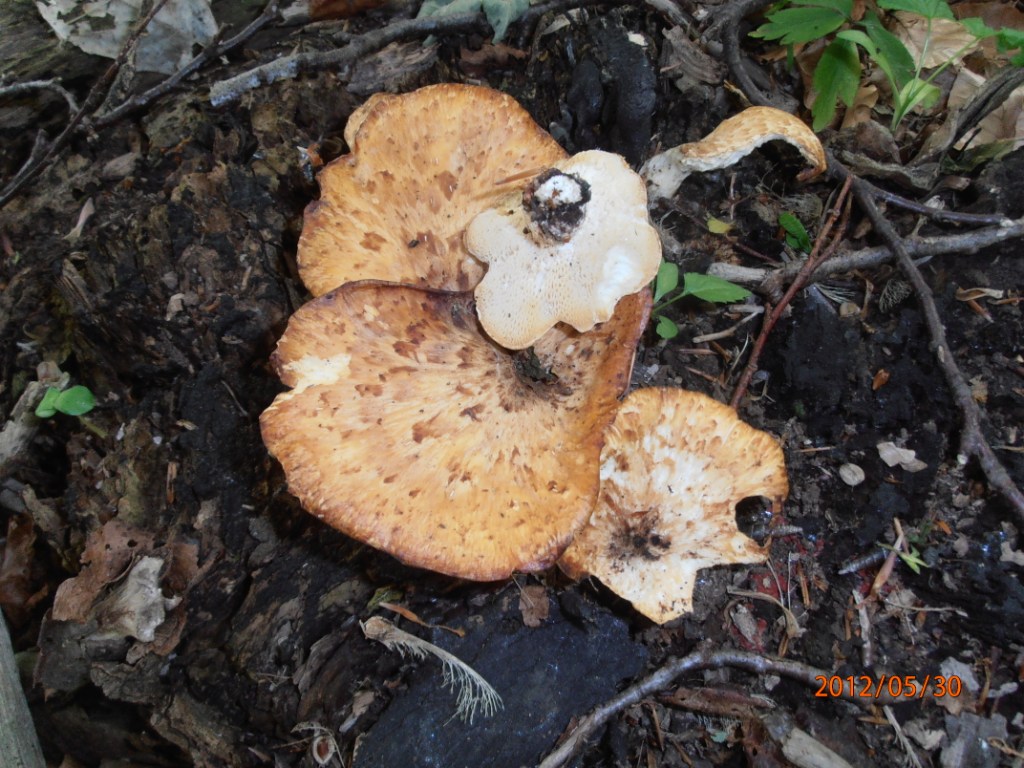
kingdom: Fungi
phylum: Basidiomycota
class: Agaricomycetes
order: Polyporales
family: Polyporaceae
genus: Polyporus
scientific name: Polyporus tuberaster
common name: knoldet stilkporesvamp
